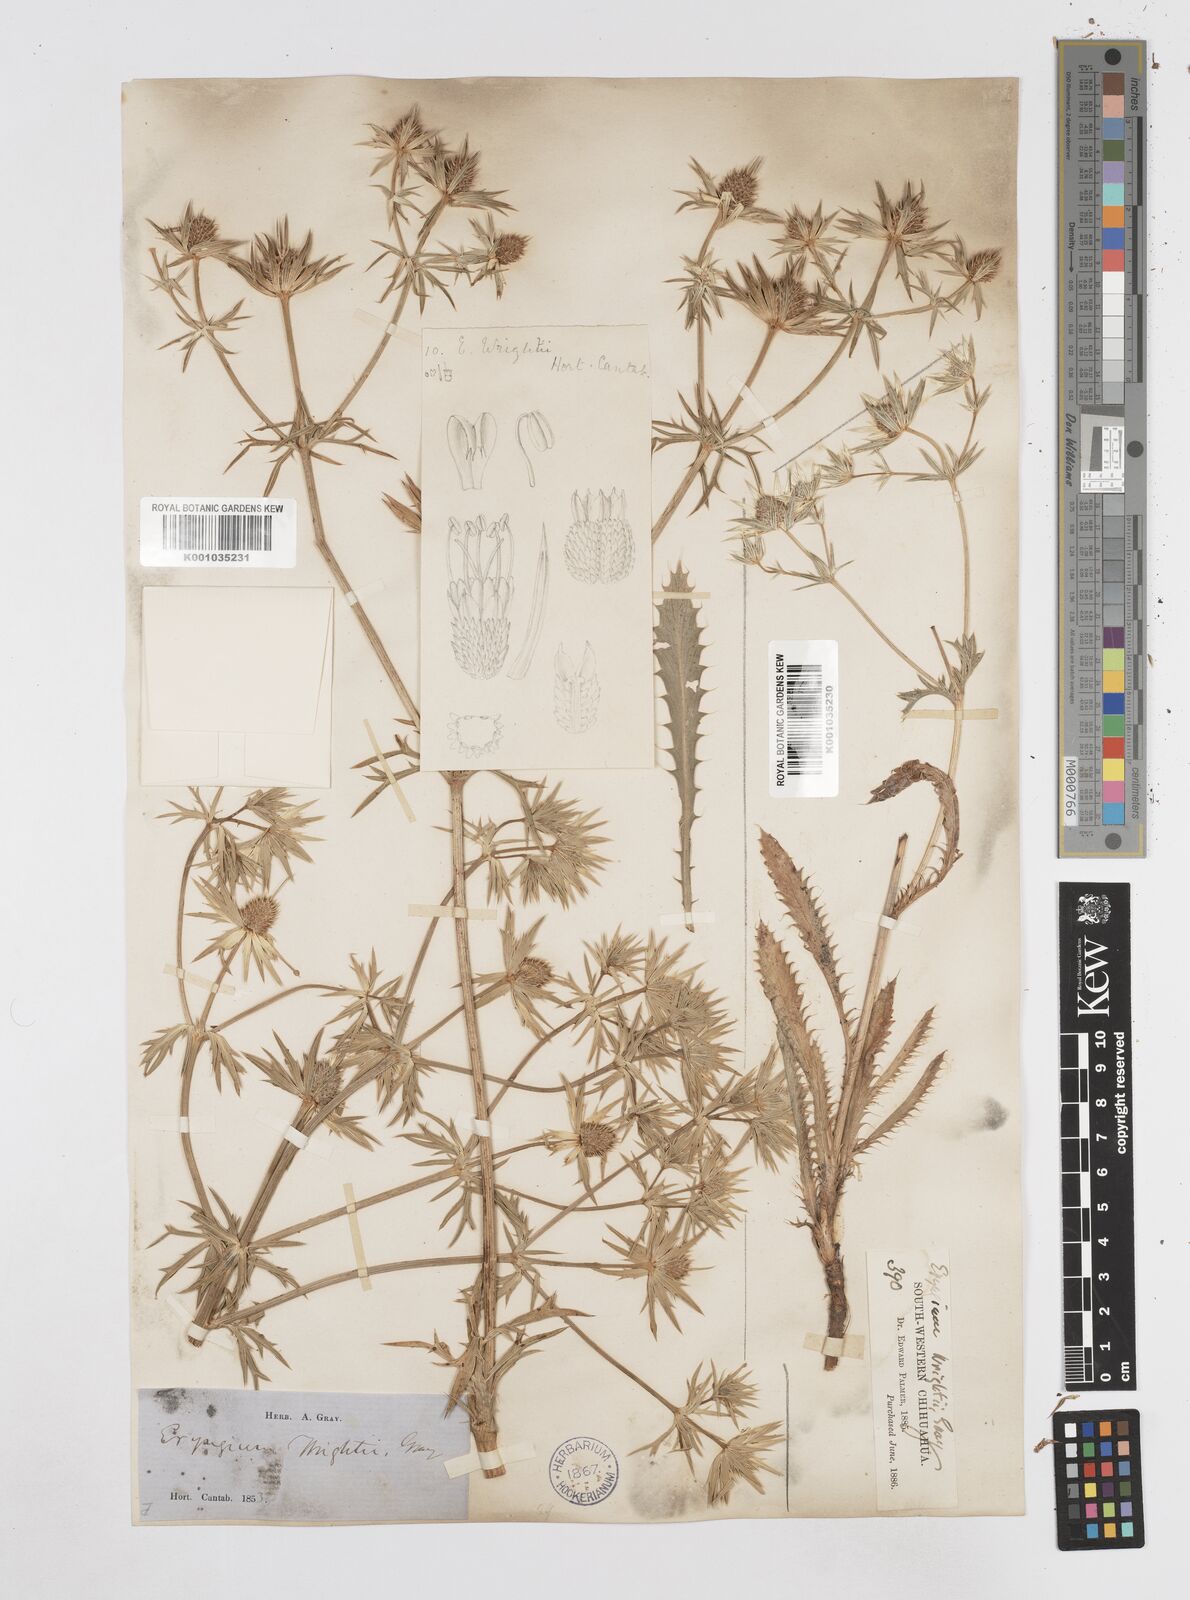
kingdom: Plantae
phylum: Tracheophyta
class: Magnoliopsida
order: Apiales
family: Apiaceae
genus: Eryngium
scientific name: Eryngium heterophyllum
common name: Mexican thistle
